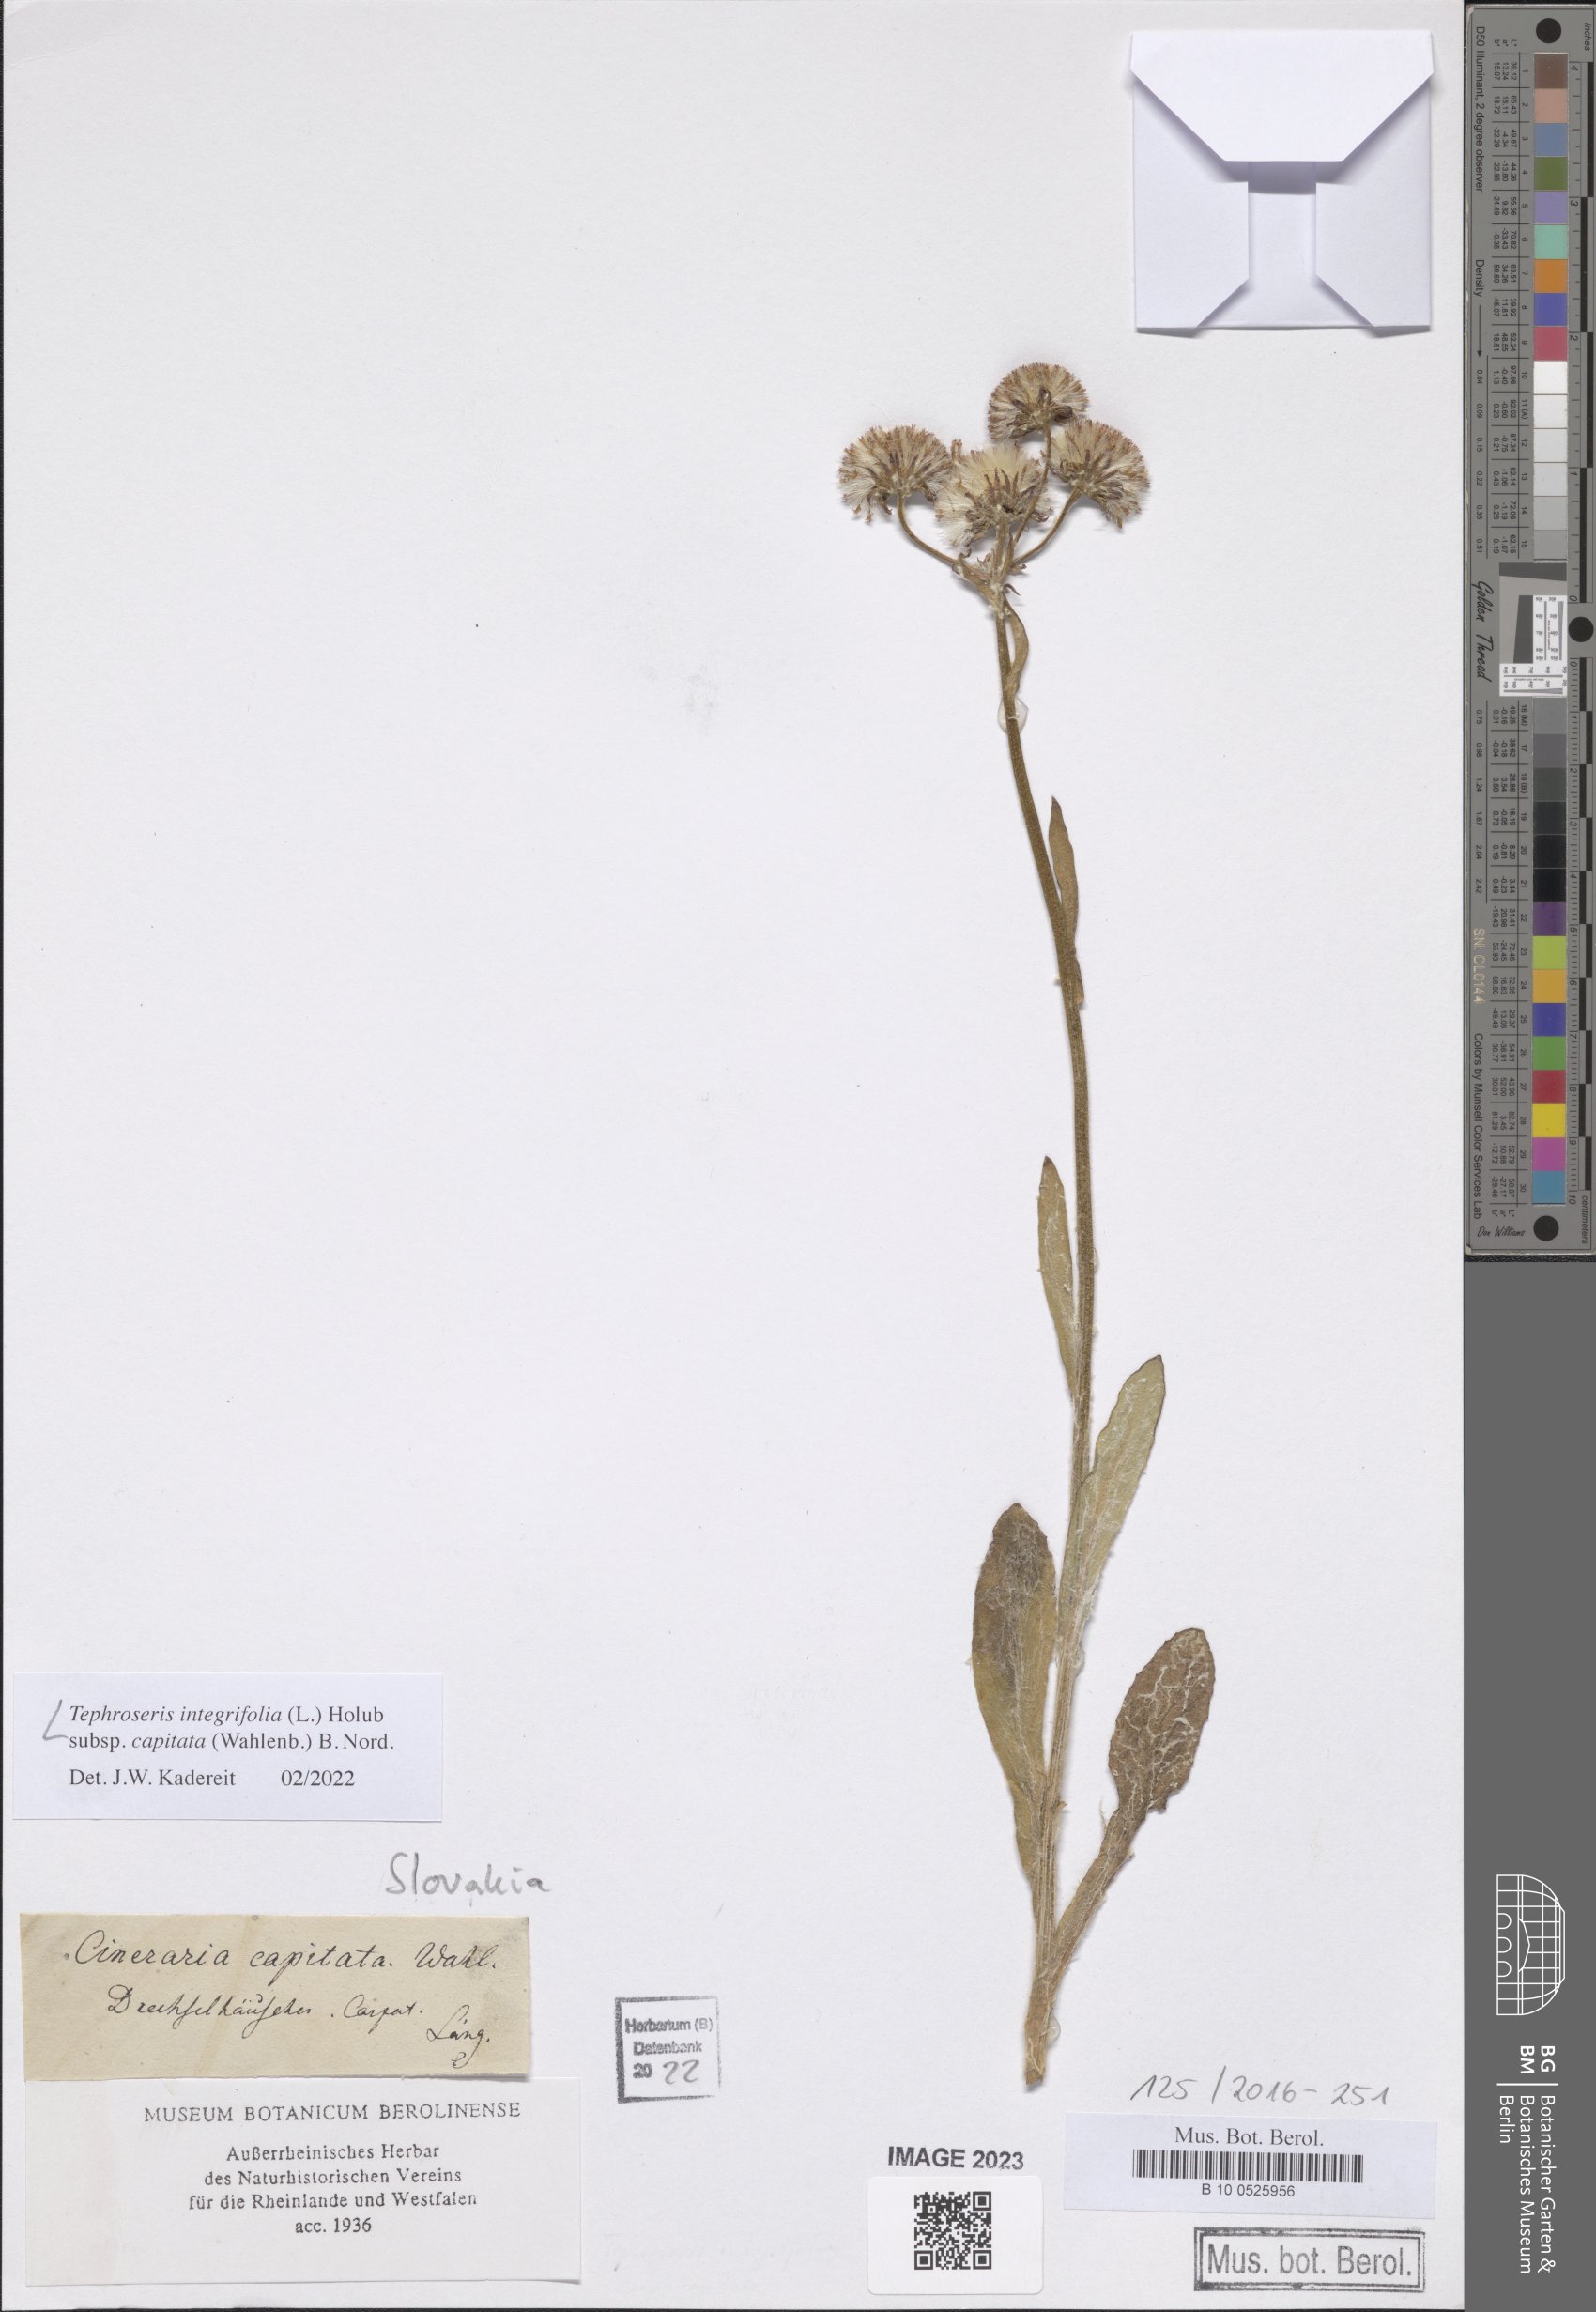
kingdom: Plantae
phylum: Tracheophyta
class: Magnoliopsida
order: Asterales
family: Asteraceae
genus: Tephroseris
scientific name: Tephroseris integrifolia
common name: Field fleawort
